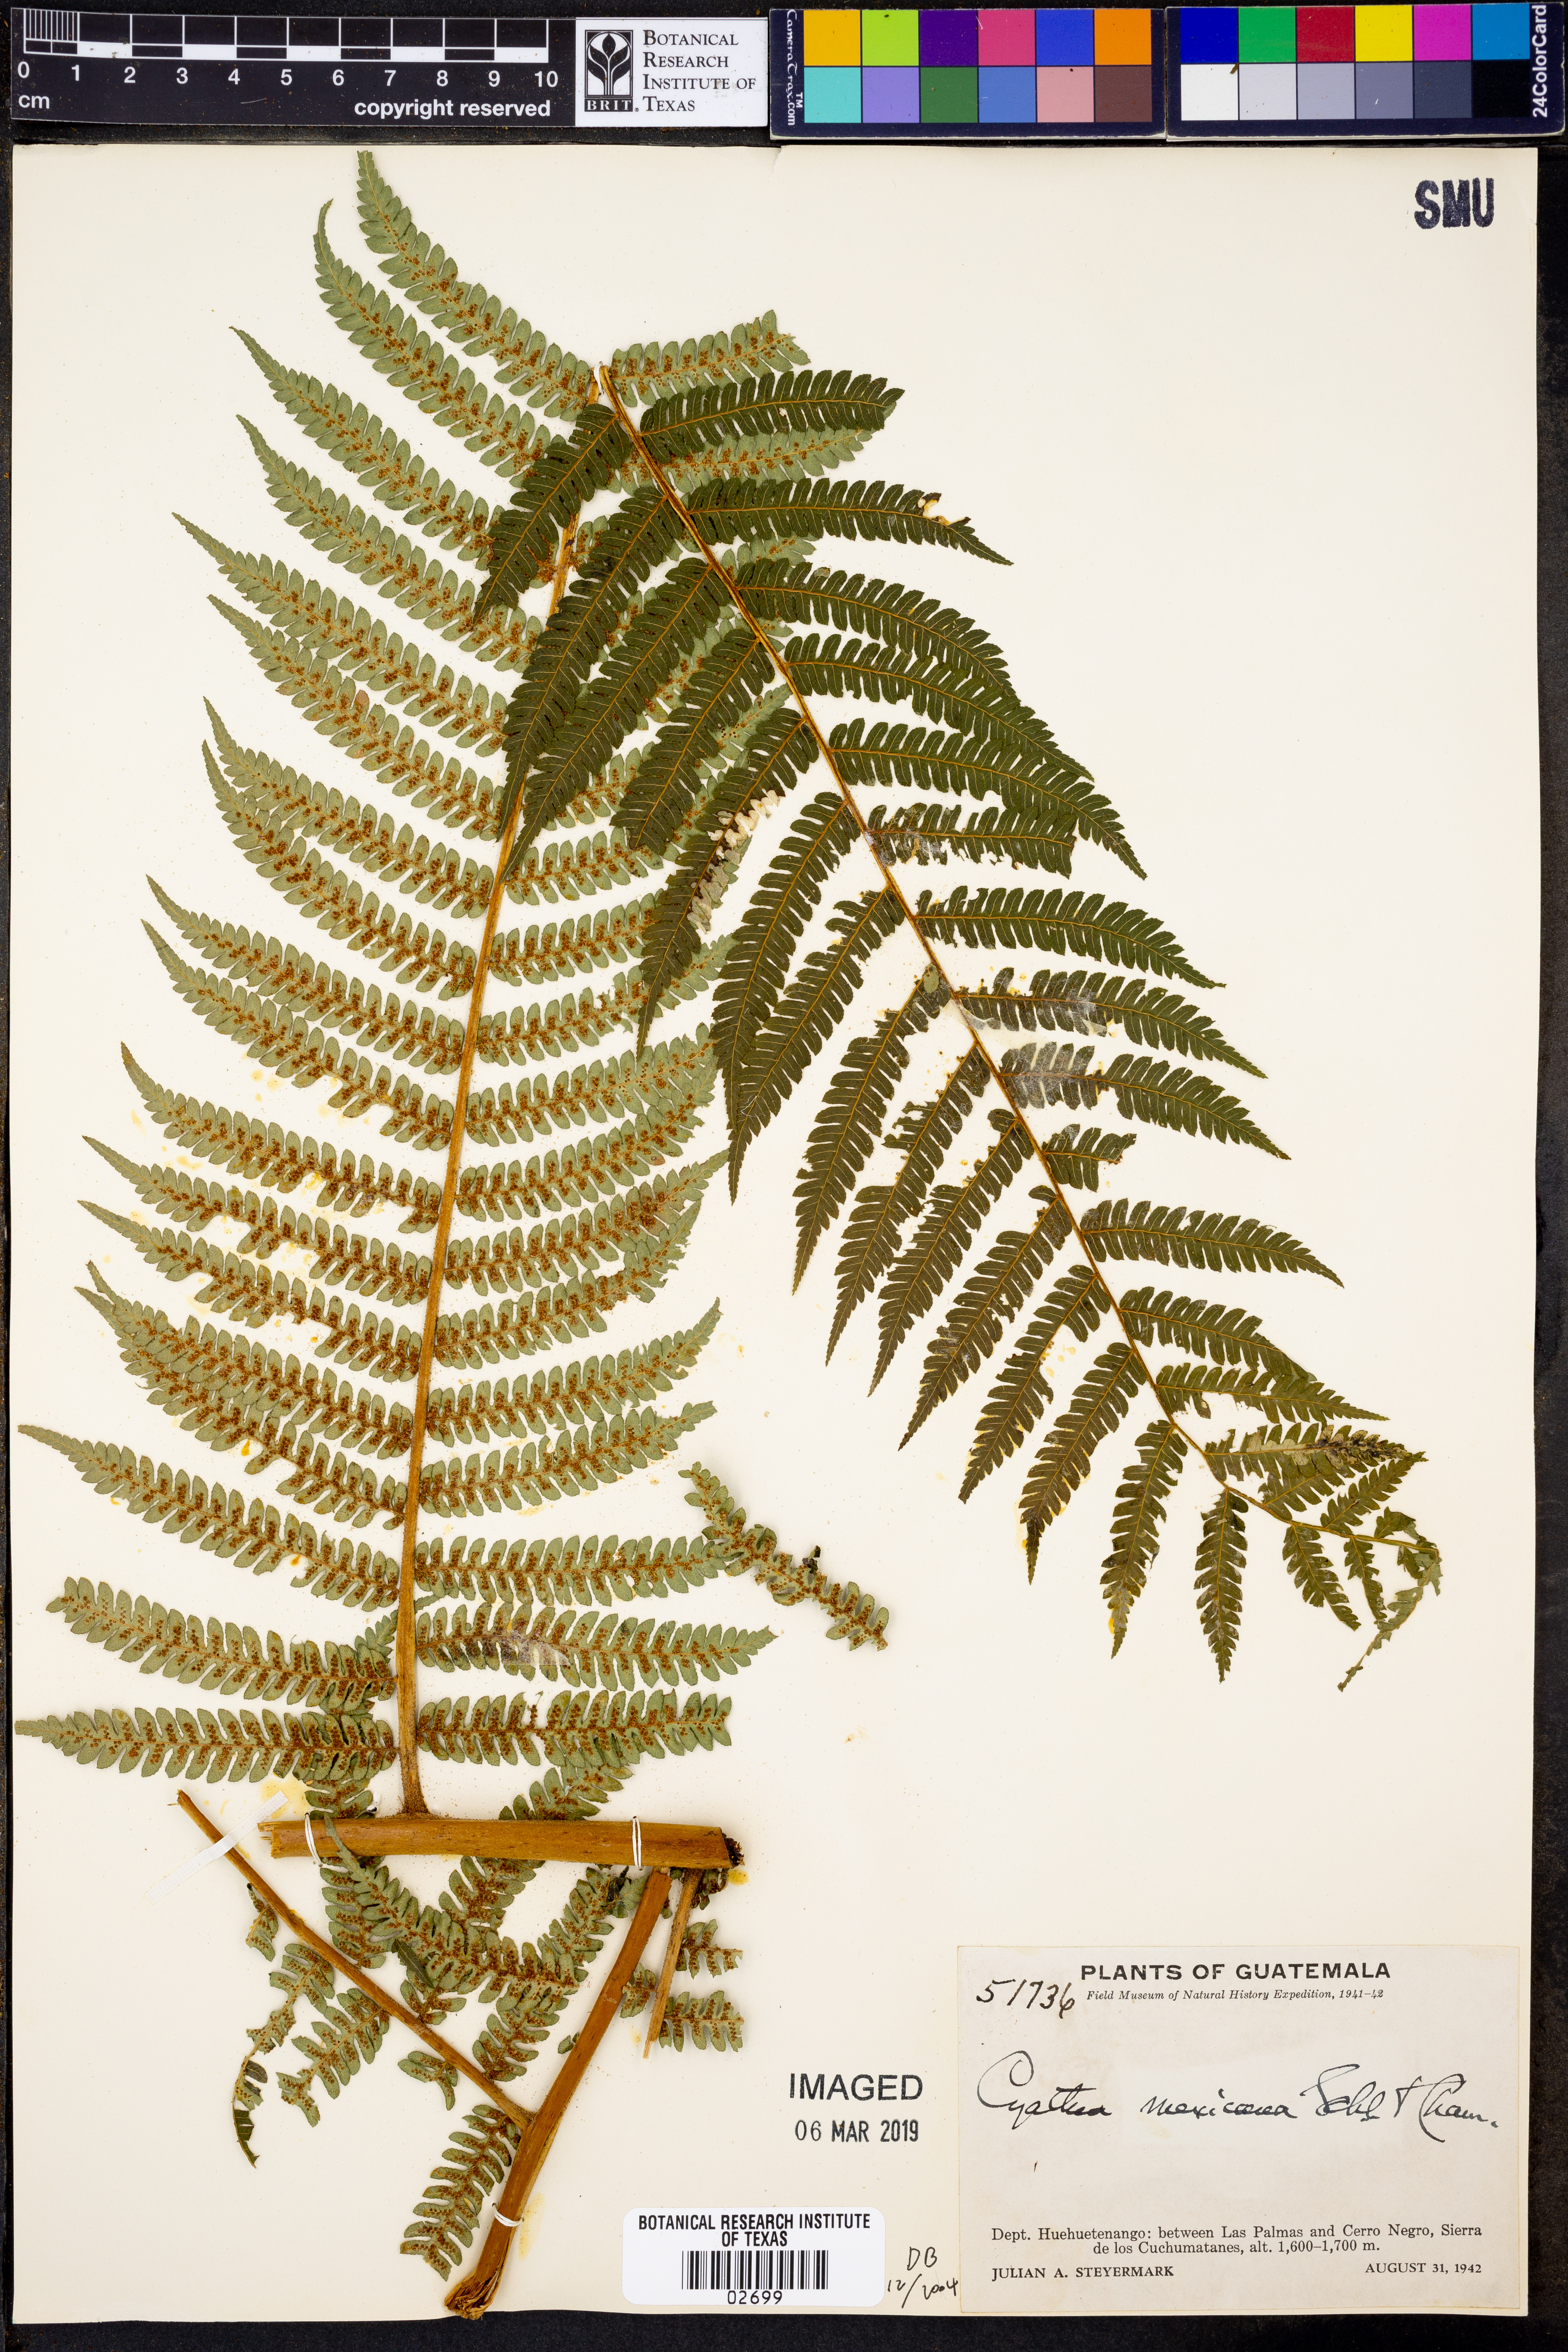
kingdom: Plantae
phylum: Tracheophyta
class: Polypodiopsida
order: Cyatheales
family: Cyatheaceae
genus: Alsophila
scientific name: Alsophila firma
